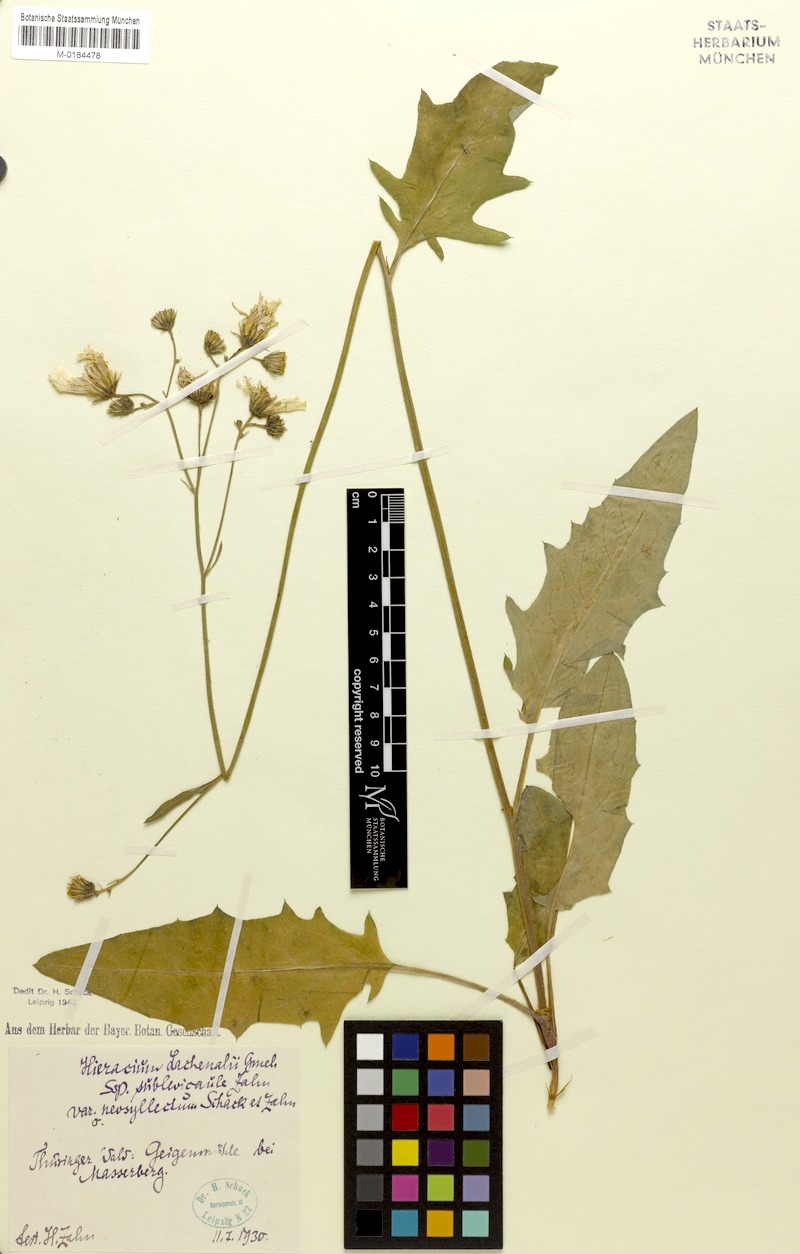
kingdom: Plantae
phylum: Tracheophyta
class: Magnoliopsida
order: Asterales
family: Asteraceae
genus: Hieracium
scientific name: Hieracium lachenalii
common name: Common hawkweed
